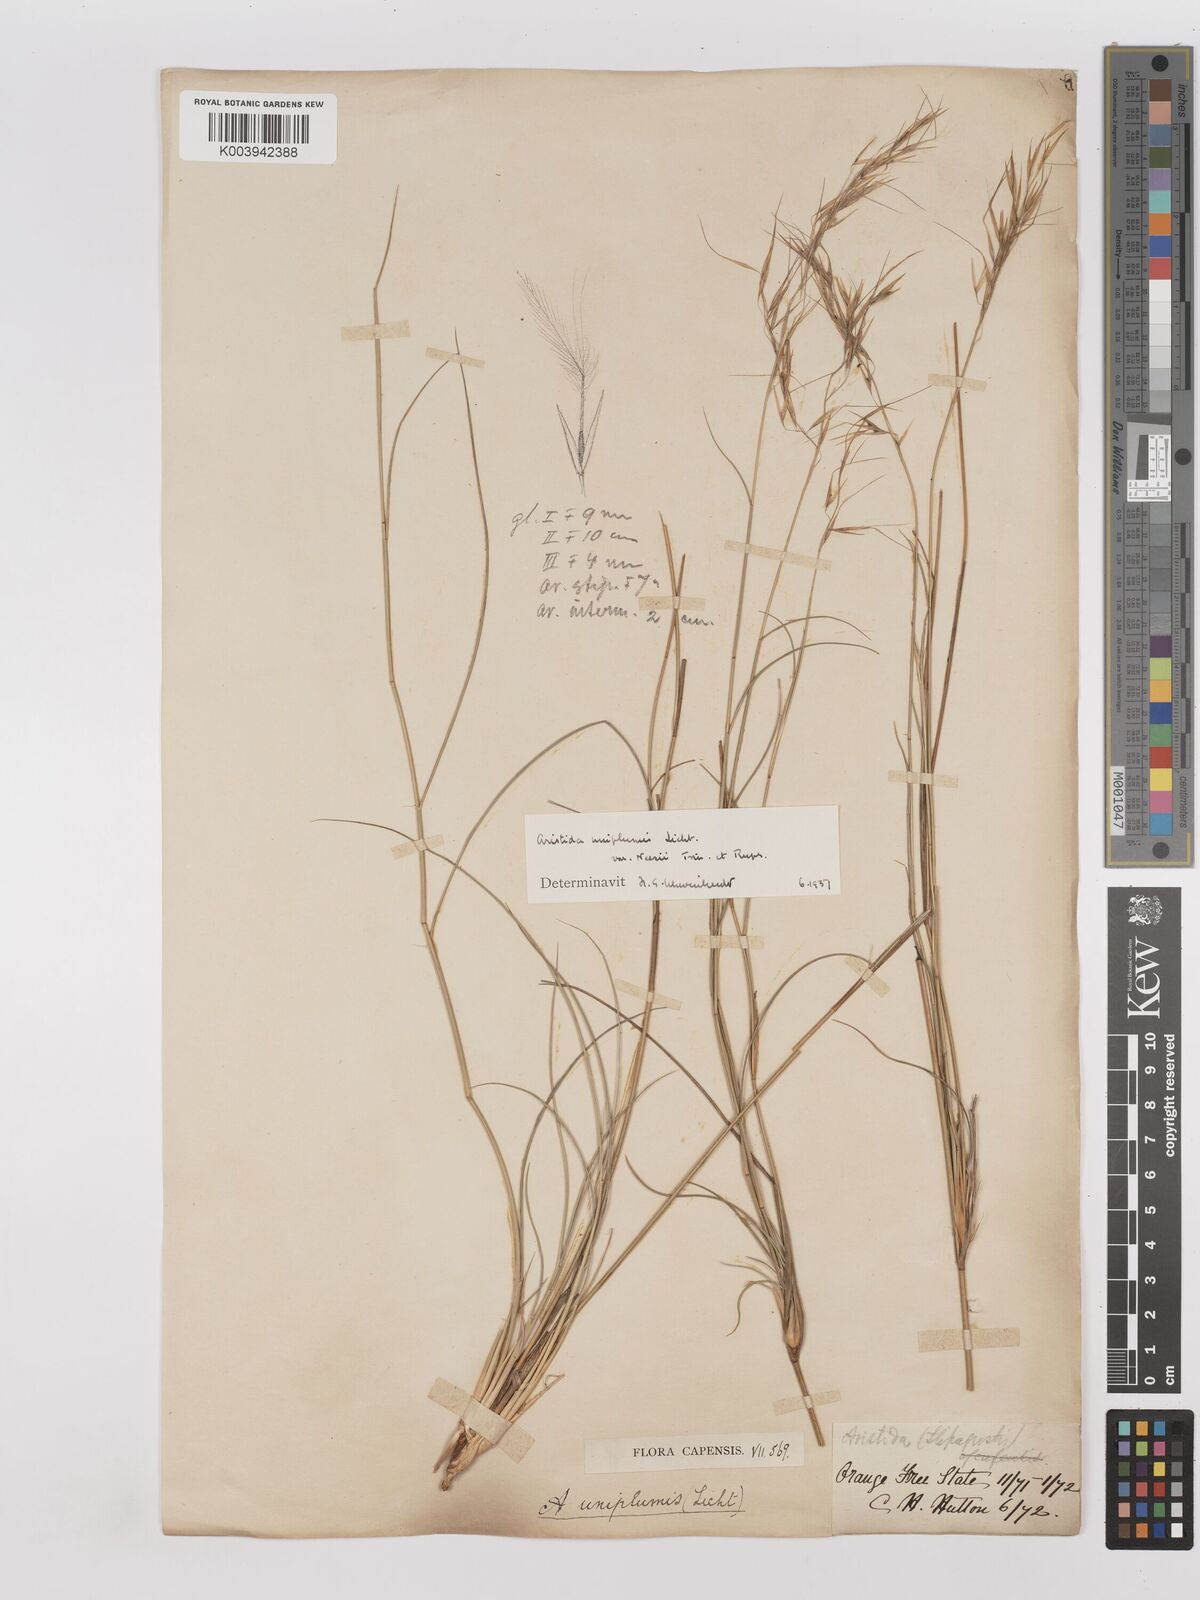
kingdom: Plantae
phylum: Tracheophyta
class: Liliopsida
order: Poales
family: Poaceae
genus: Stipagrostis
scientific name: Stipagrostis uniplumis
